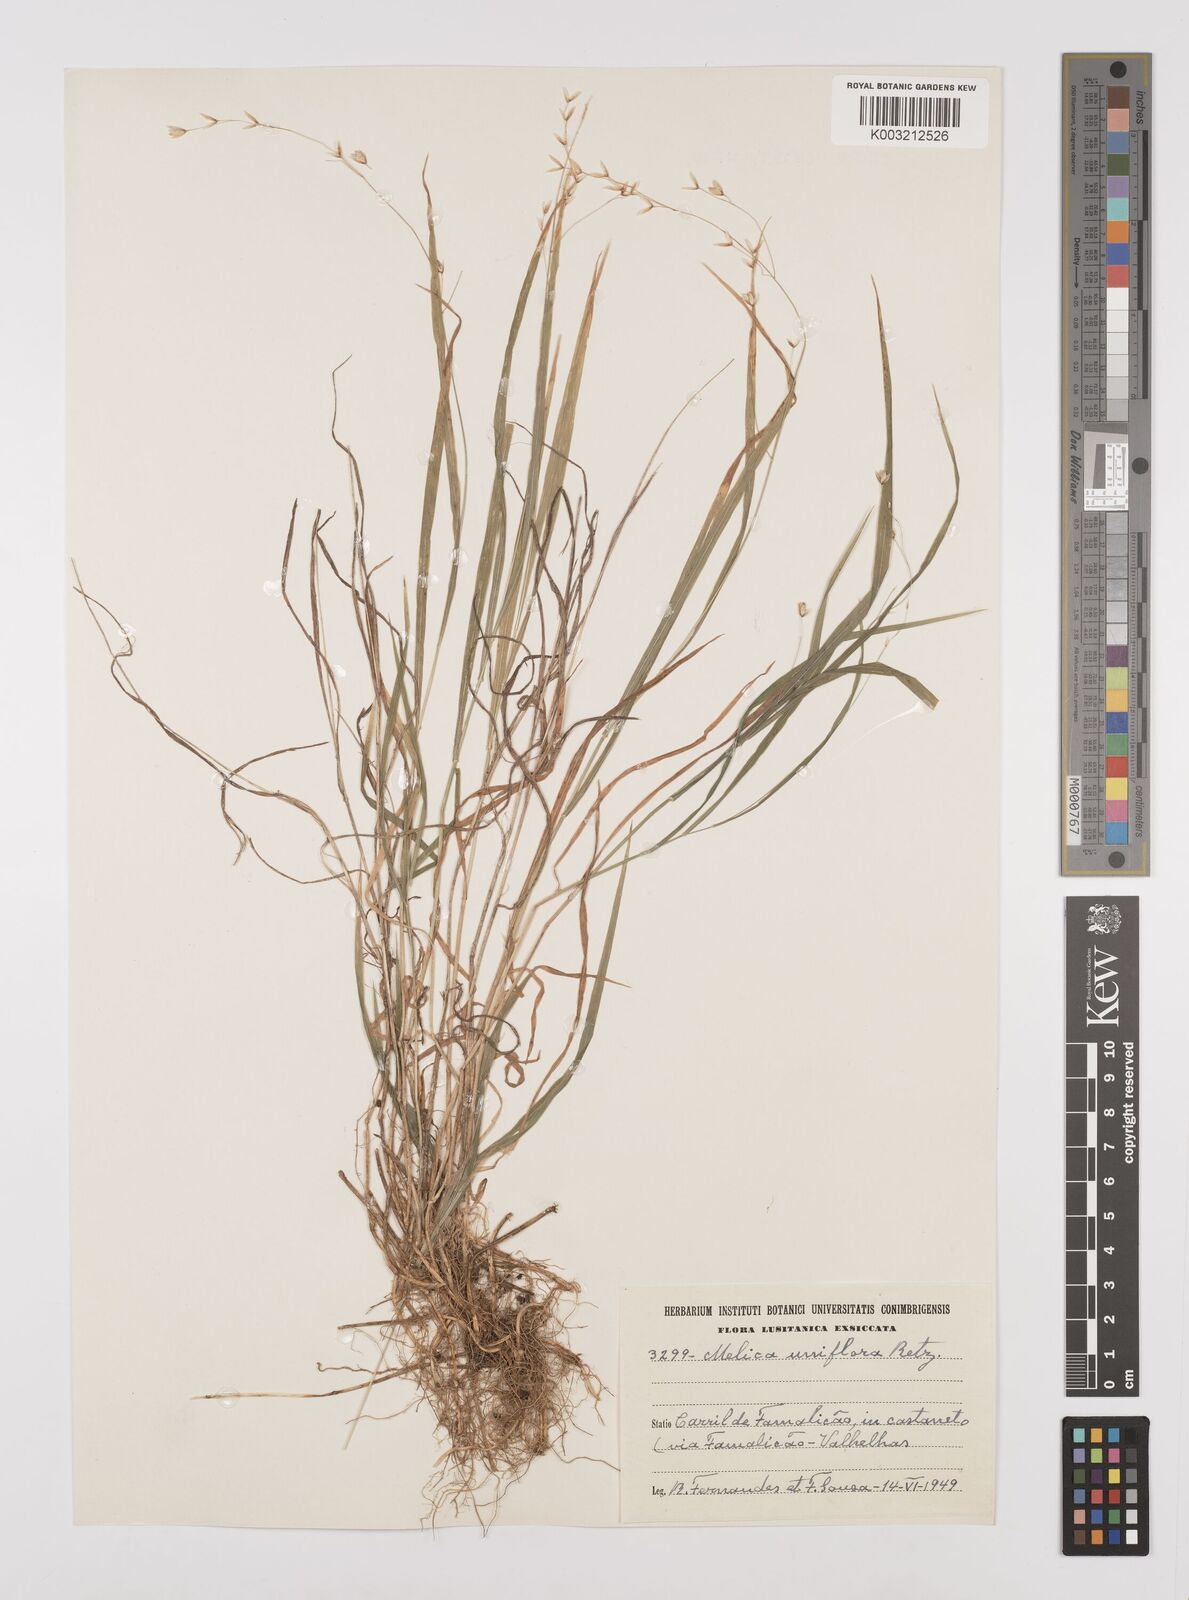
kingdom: Plantae
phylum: Tracheophyta
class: Liliopsida
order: Poales
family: Poaceae
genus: Melica
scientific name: Melica uniflora
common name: Wood melick
